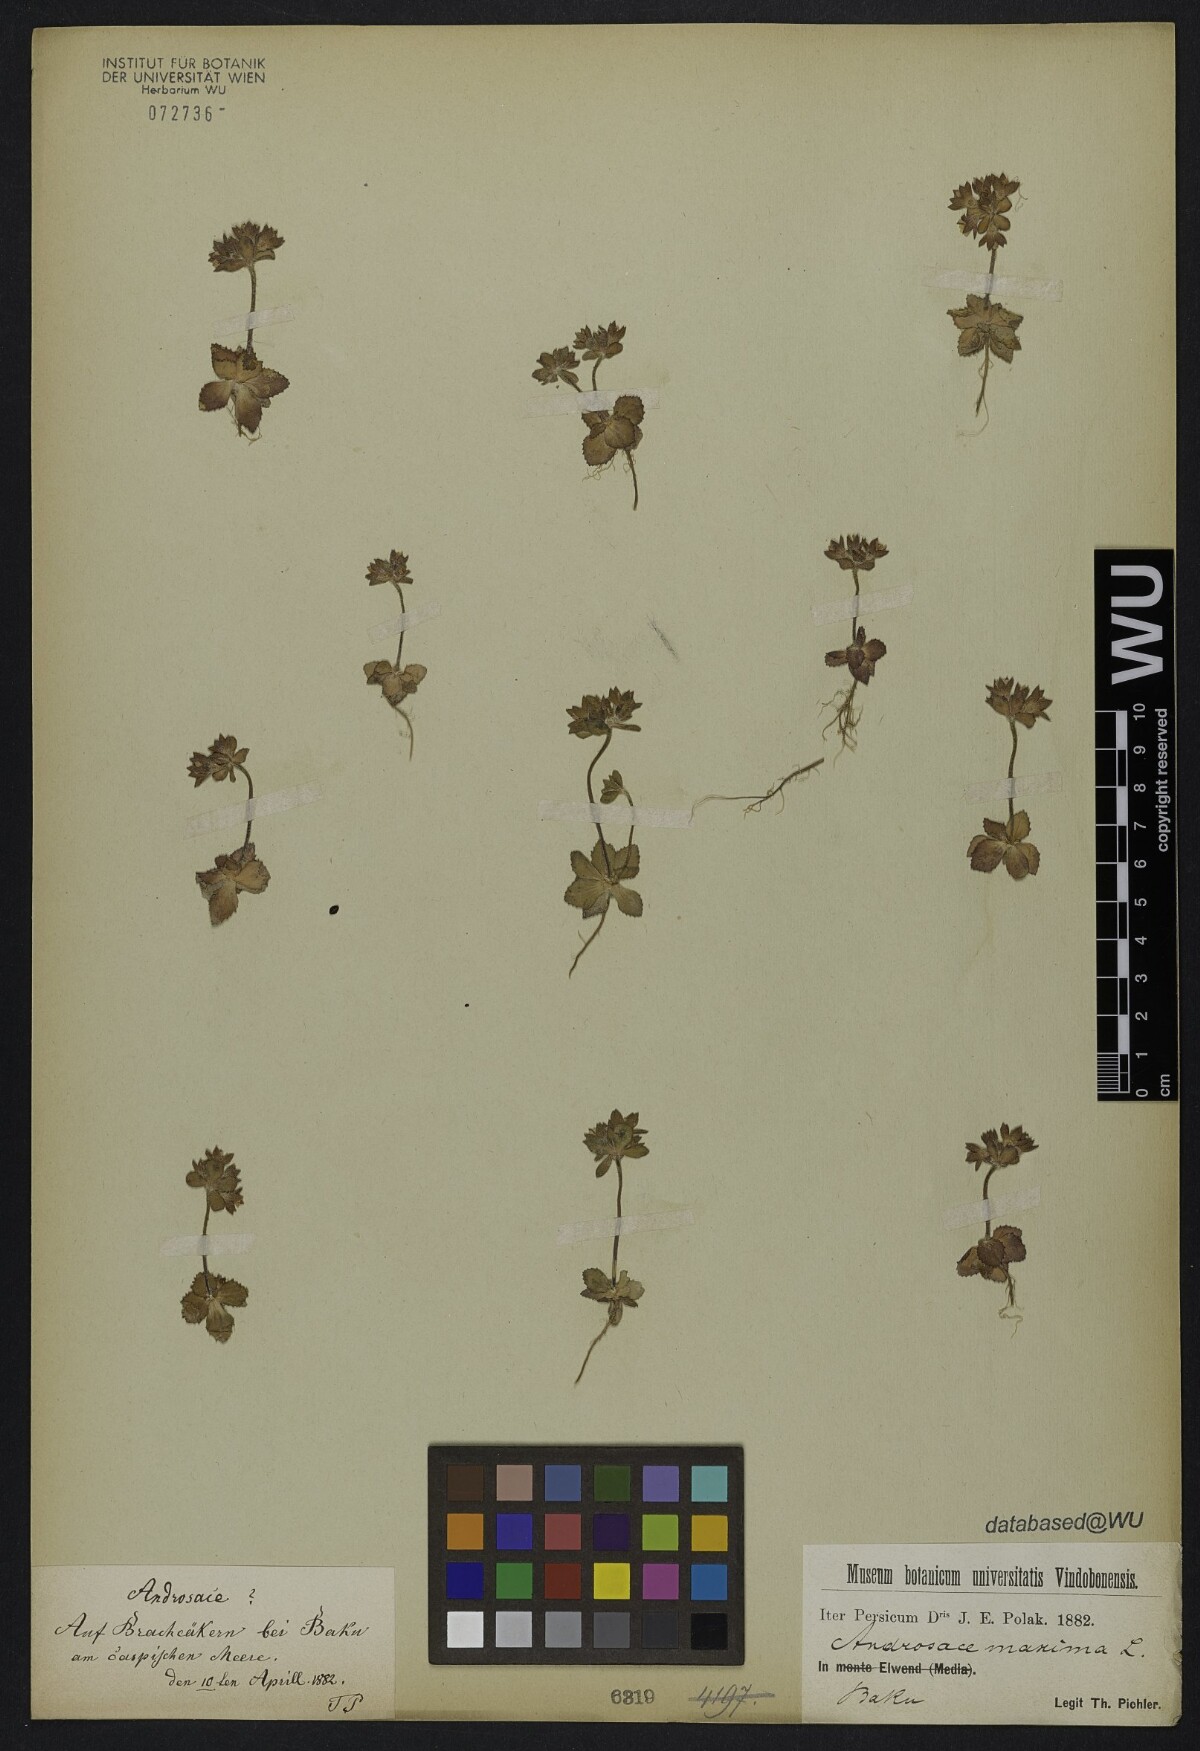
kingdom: Plantae
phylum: Tracheophyta
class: Magnoliopsida
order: Ericales
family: Primulaceae
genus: Androsace
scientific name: Androsace maxima
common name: Annual androsace
